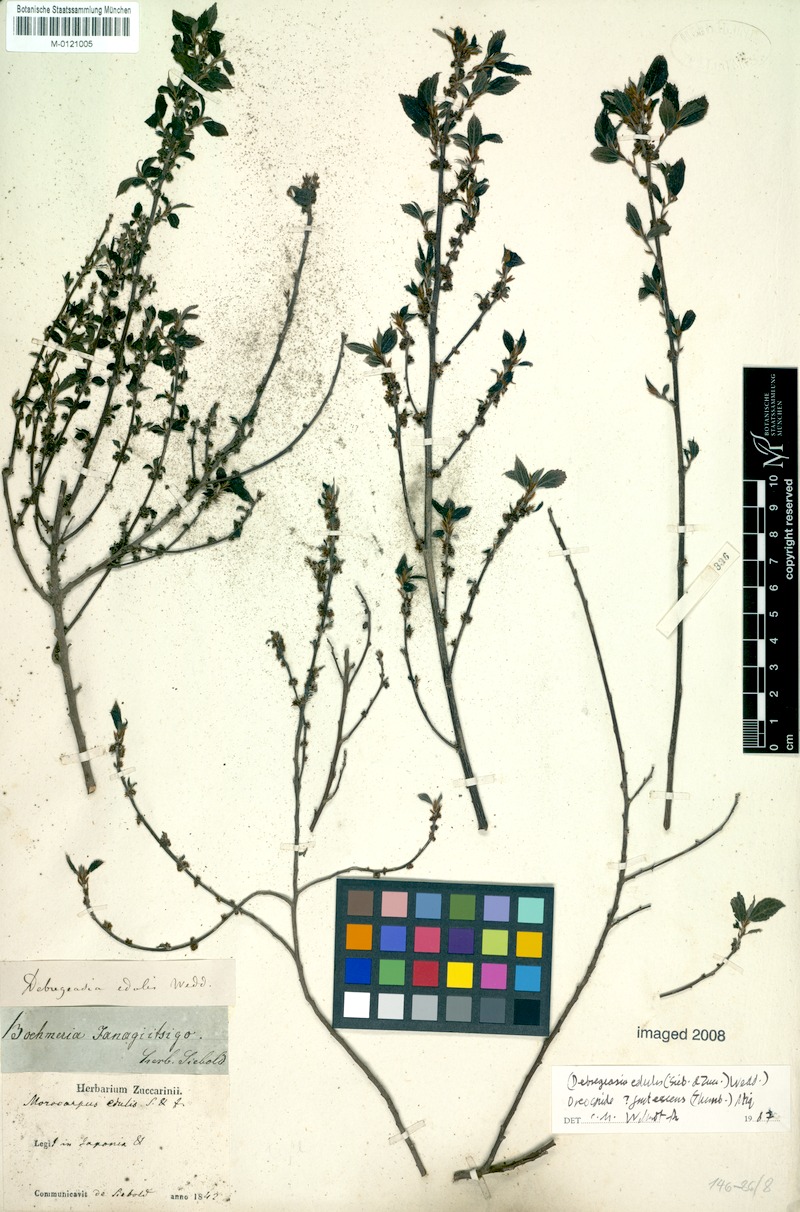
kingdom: Plantae
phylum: Tracheophyta
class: Magnoliopsida
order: Rosales
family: Urticaceae
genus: Debregeasia
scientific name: Debregeasia edulis
